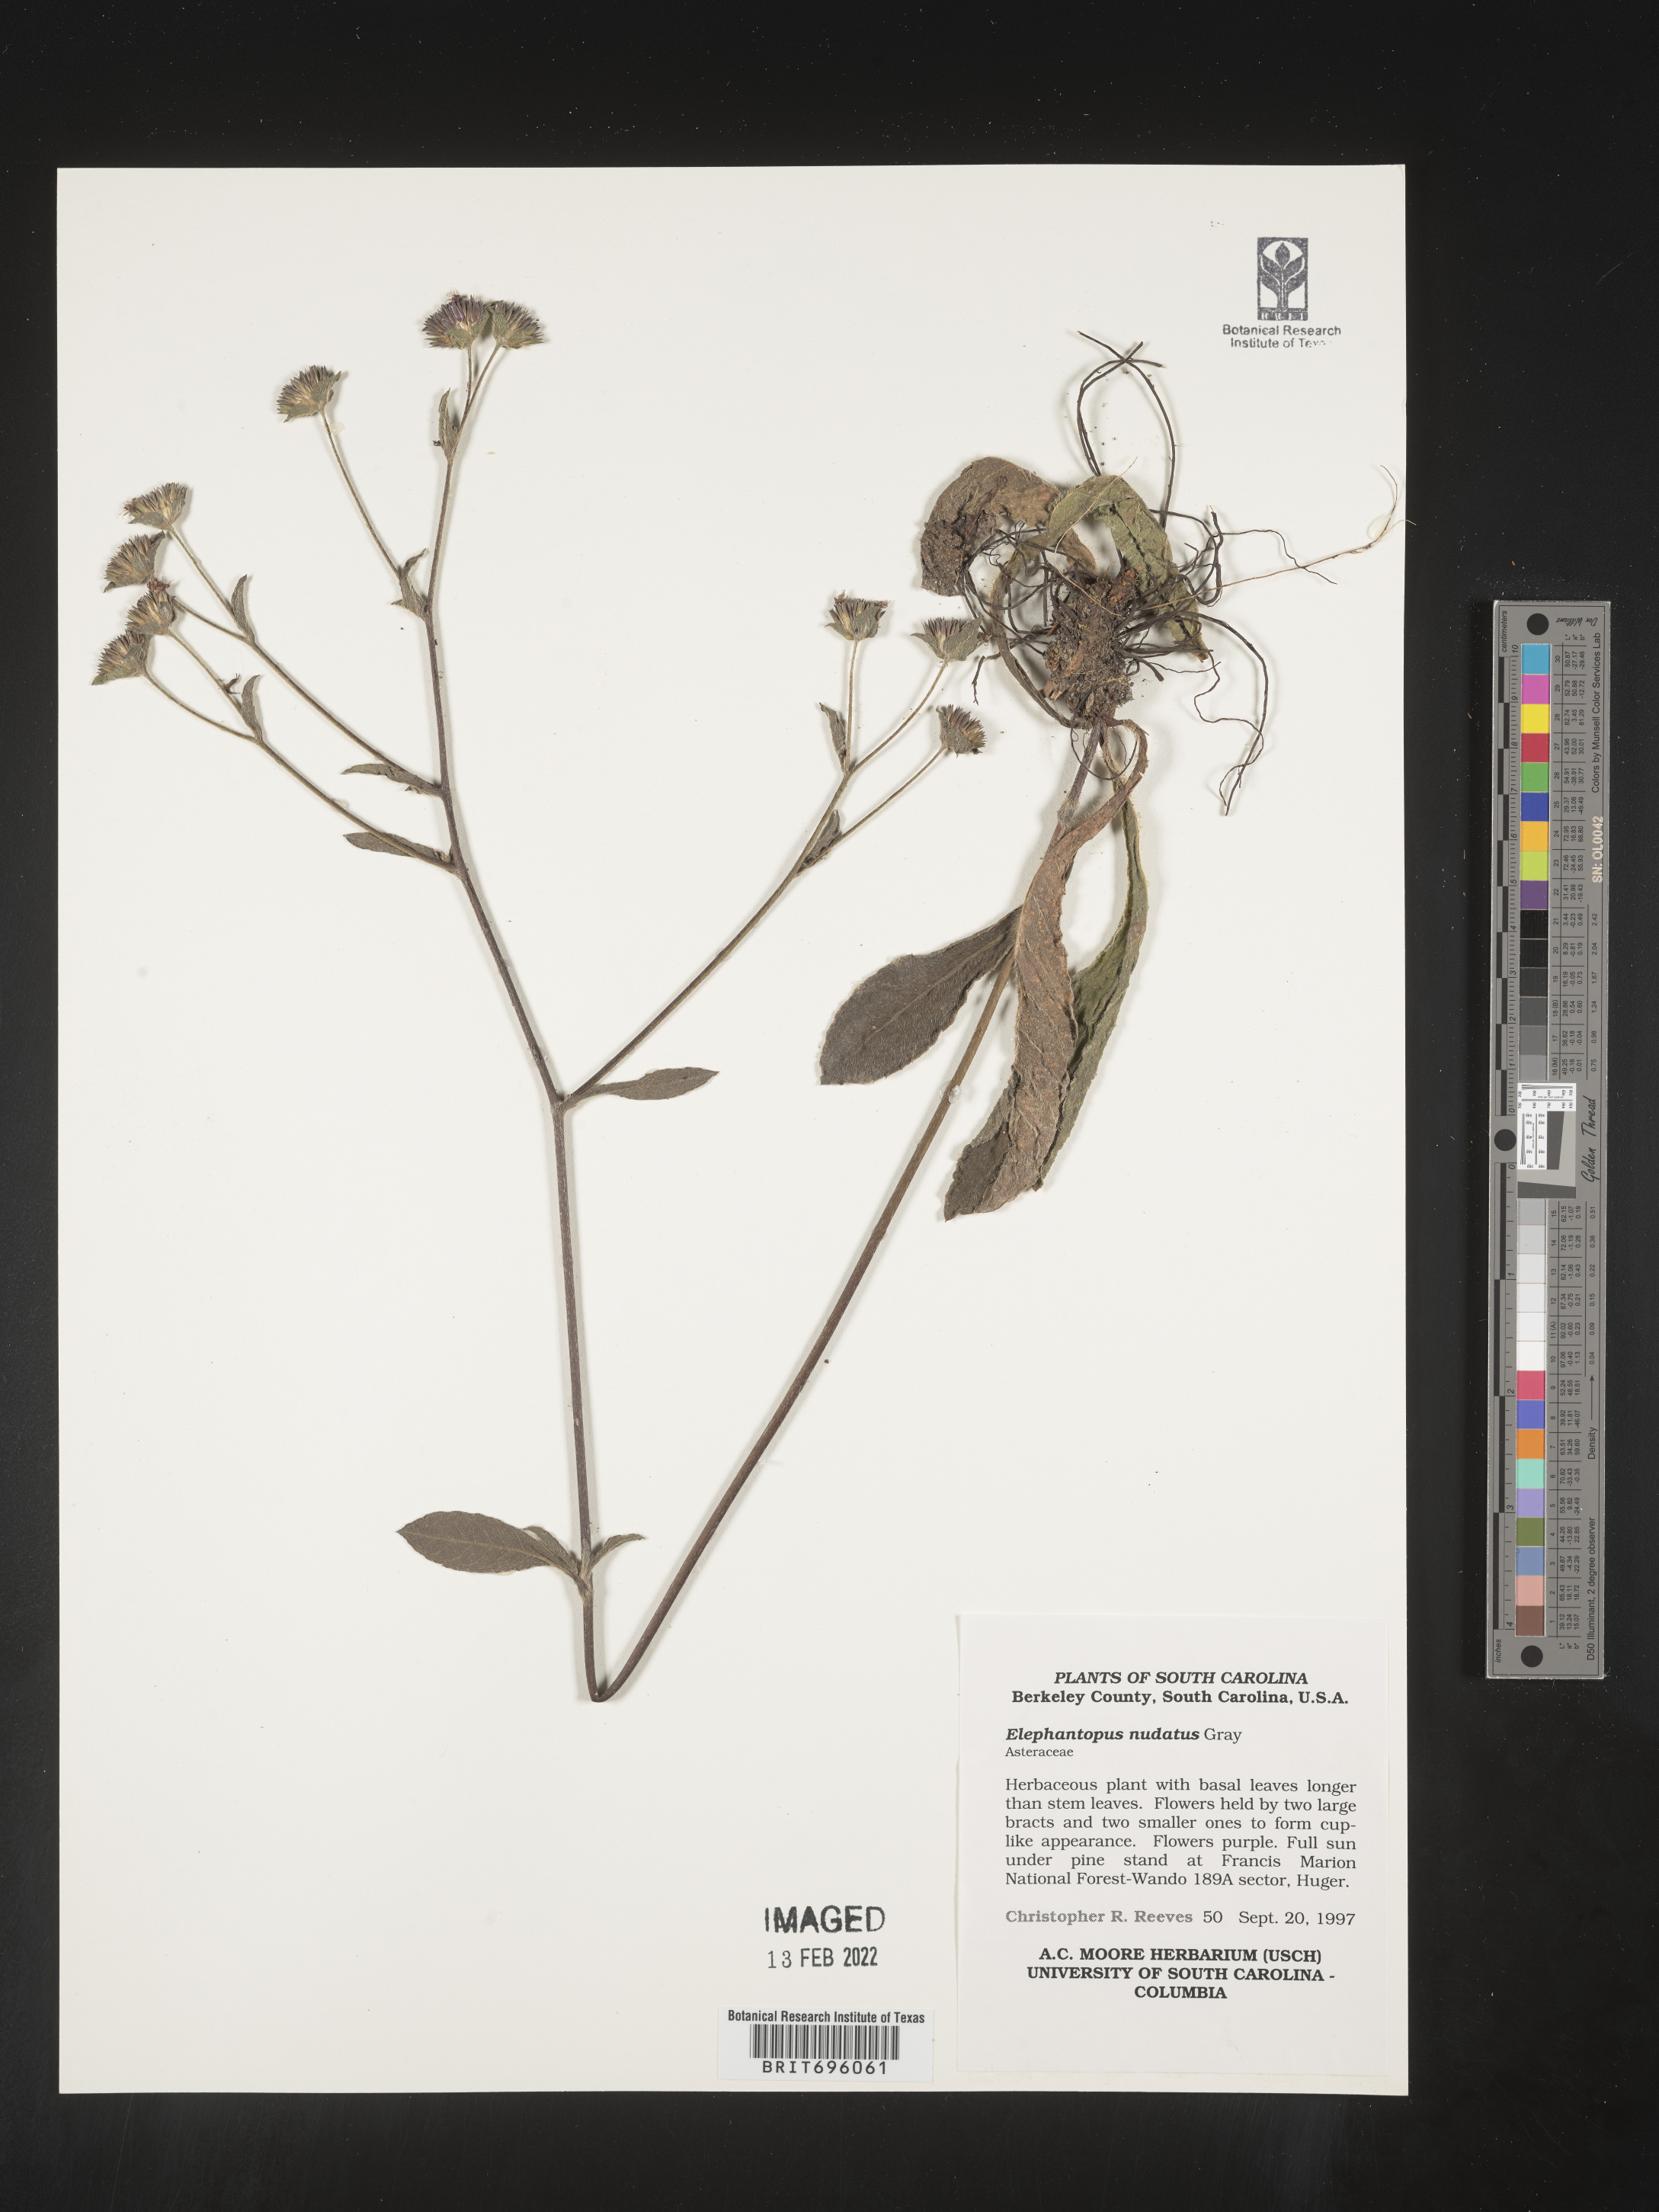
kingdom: Plantae
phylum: Tracheophyta
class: Magnoliopsida
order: Asterales
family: Asteraceae
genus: Elephantopus
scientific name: Elephantopus nudatus
